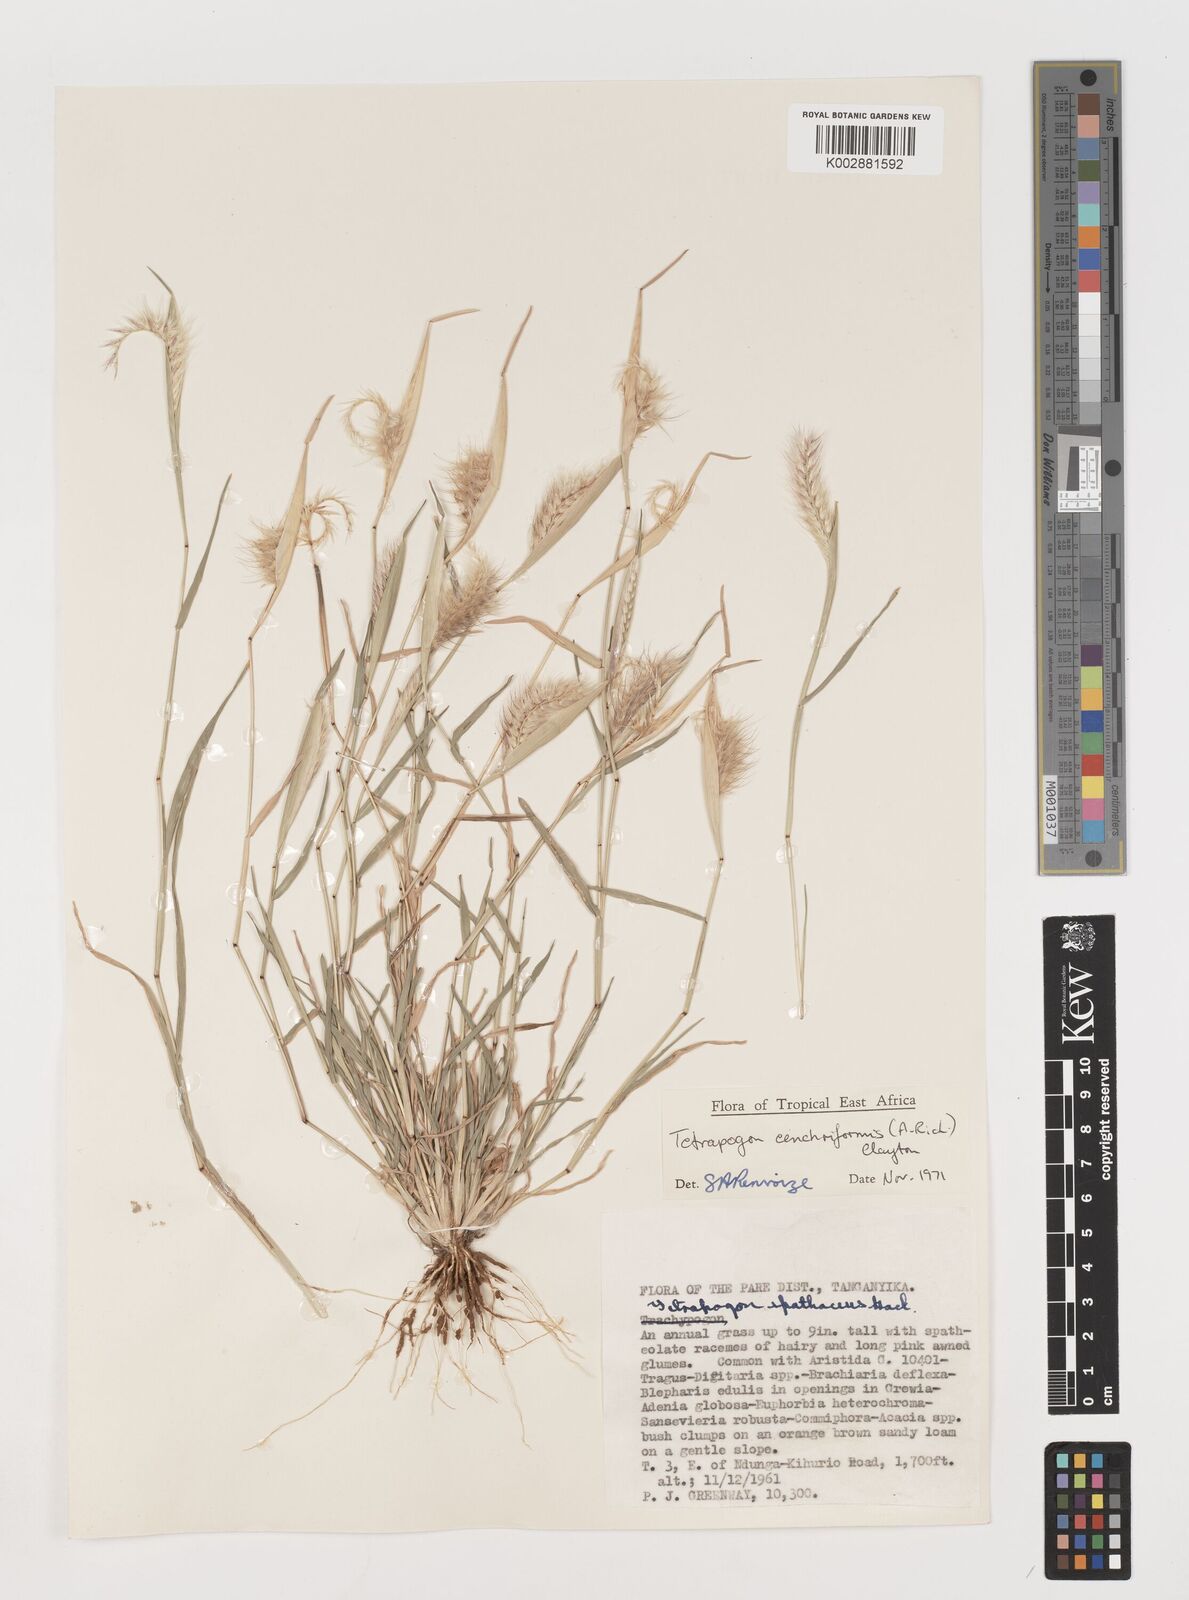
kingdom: Plantae
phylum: Tracheophyta
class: Liliopsida
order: Poales
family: Poaceae
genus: Tetrapogon
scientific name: Tetrapogon cenchriformis
